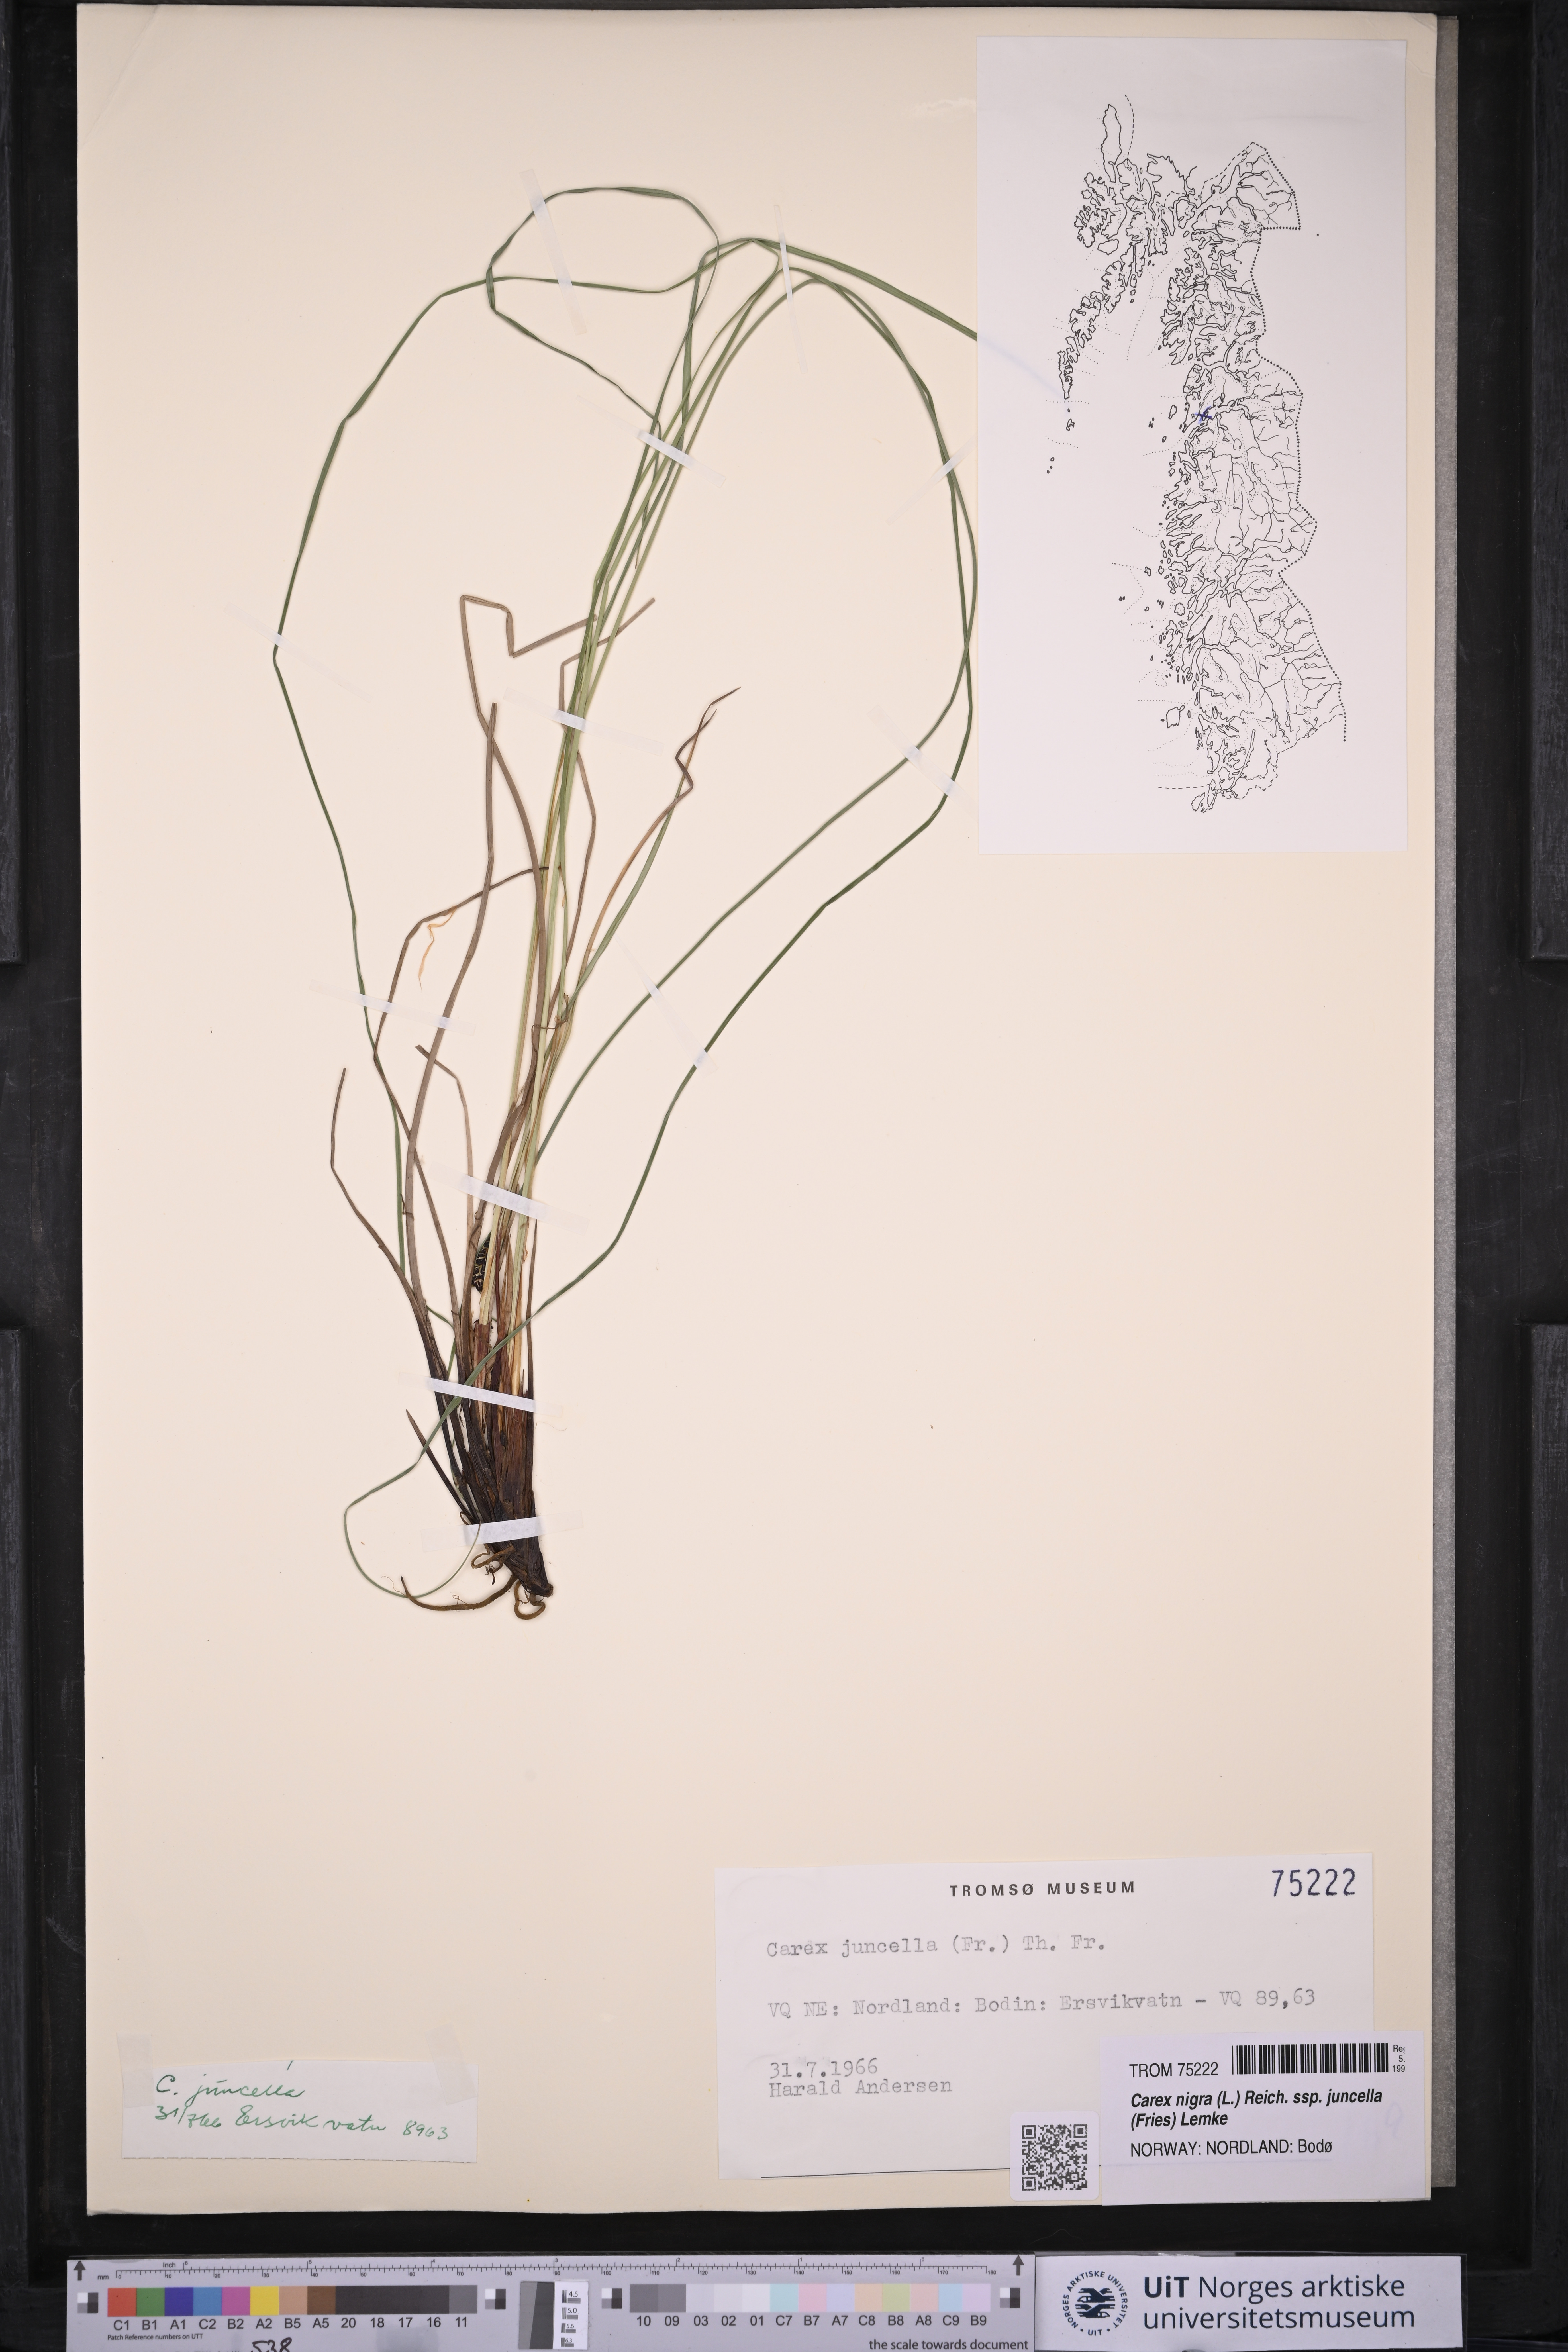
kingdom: Plantae
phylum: Tracheophyta
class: Liliopsida
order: Poales
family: Cyperaceae
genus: Carex
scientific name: Carex nigra
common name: Common sedge
